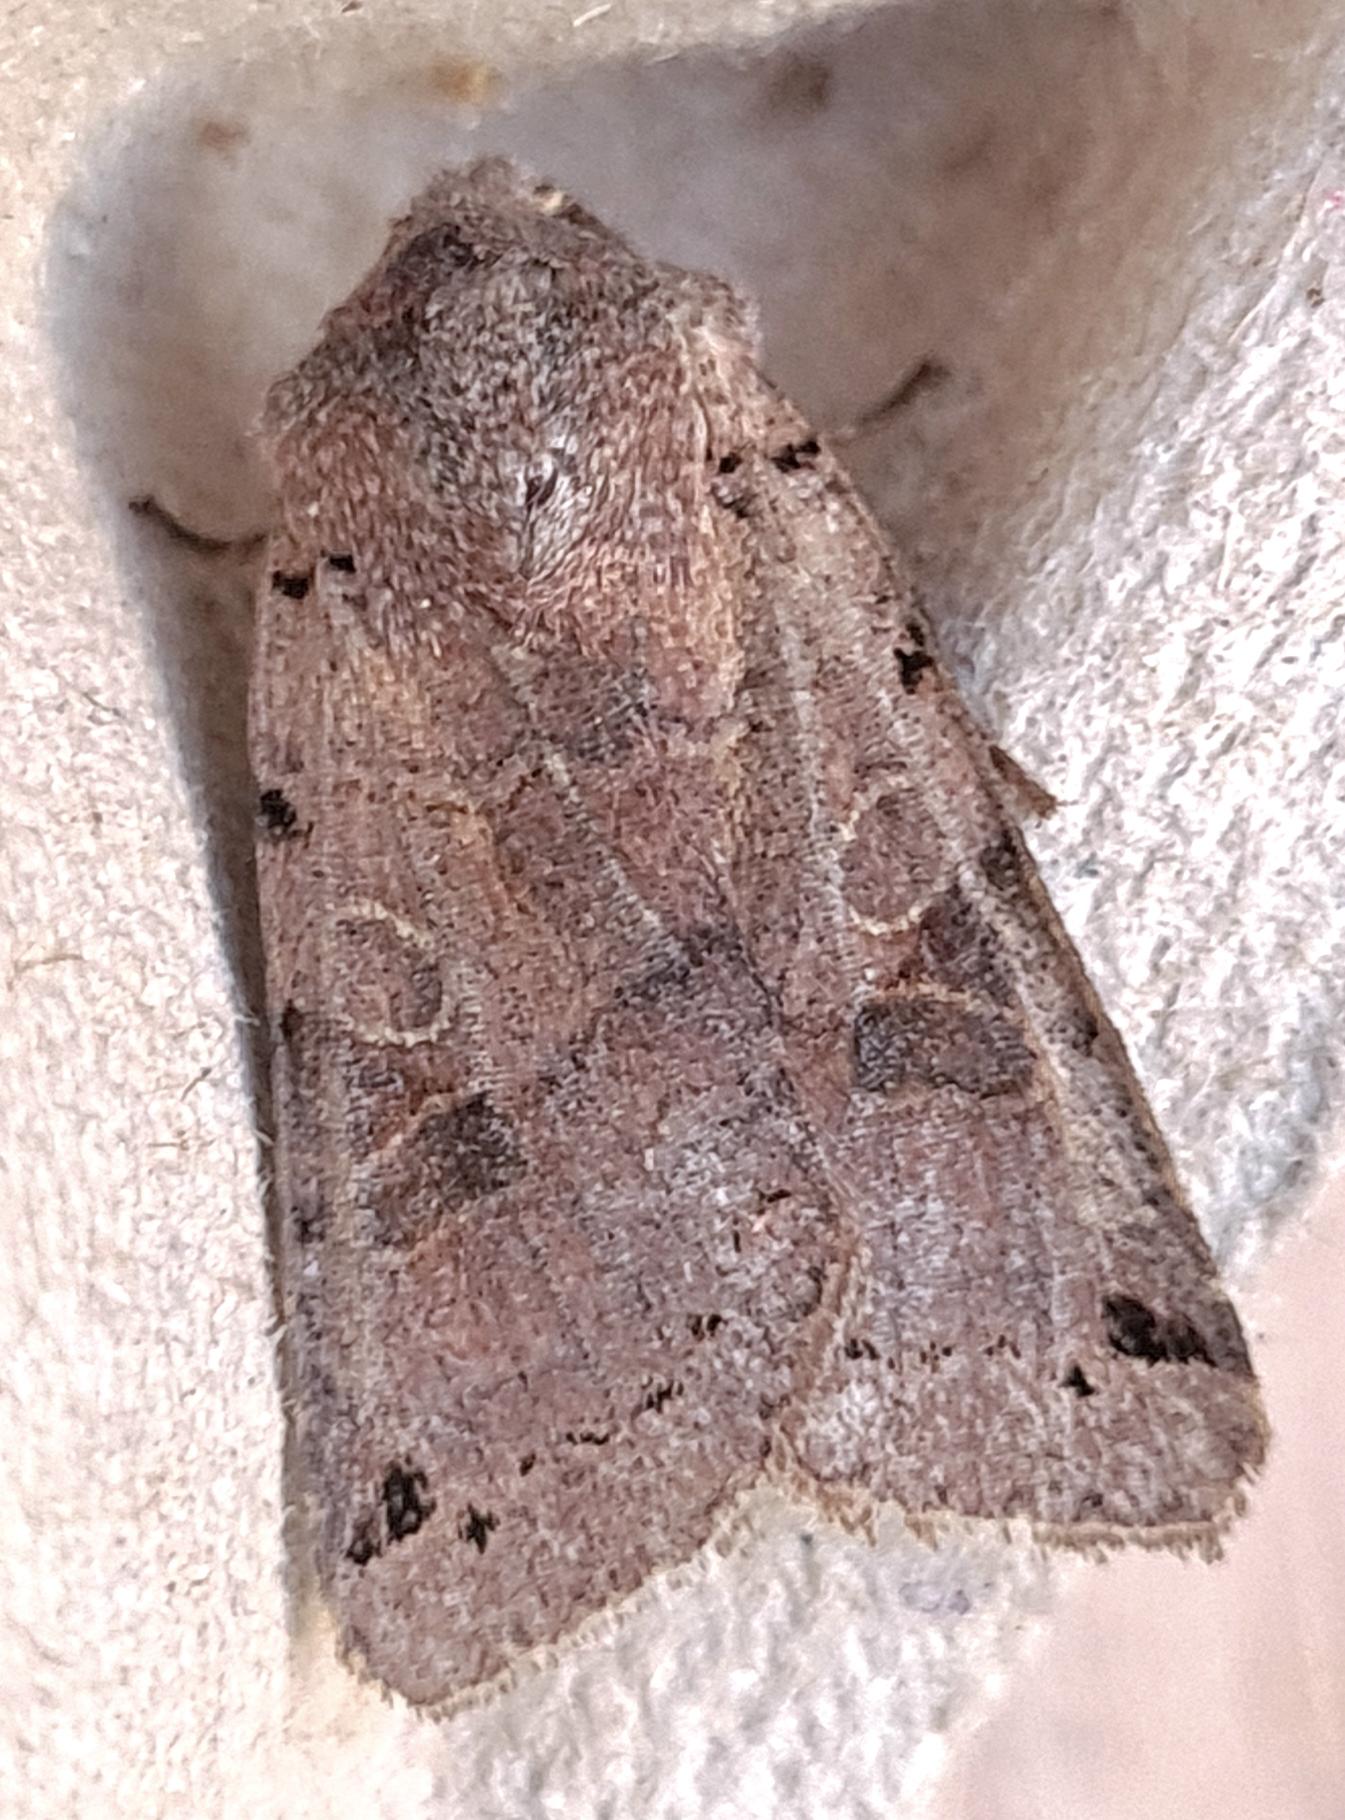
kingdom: Animalia
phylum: Arthropoda
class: Insecta
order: Lepidoptera
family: Noctuidae
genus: Agrochola
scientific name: Agrochola litura
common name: Kantplettet jordfarveugle
